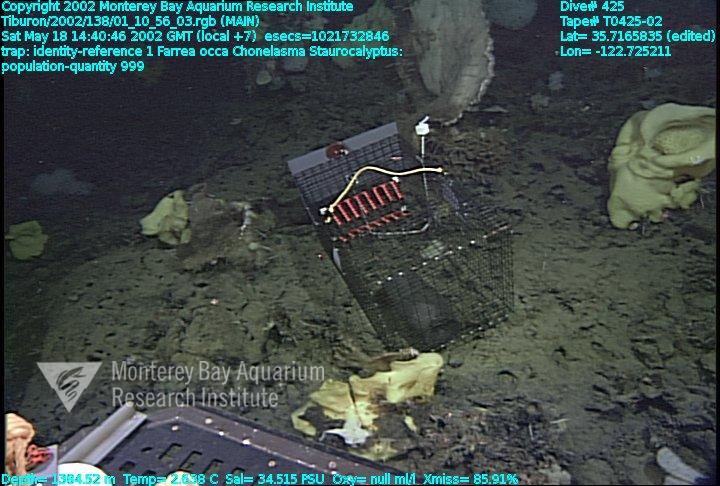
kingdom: Animalia
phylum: Porifera
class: Hexactinellida
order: Lyssacinosida
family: Rossellidae
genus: Staurocalyptus
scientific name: Staurocalyptus
